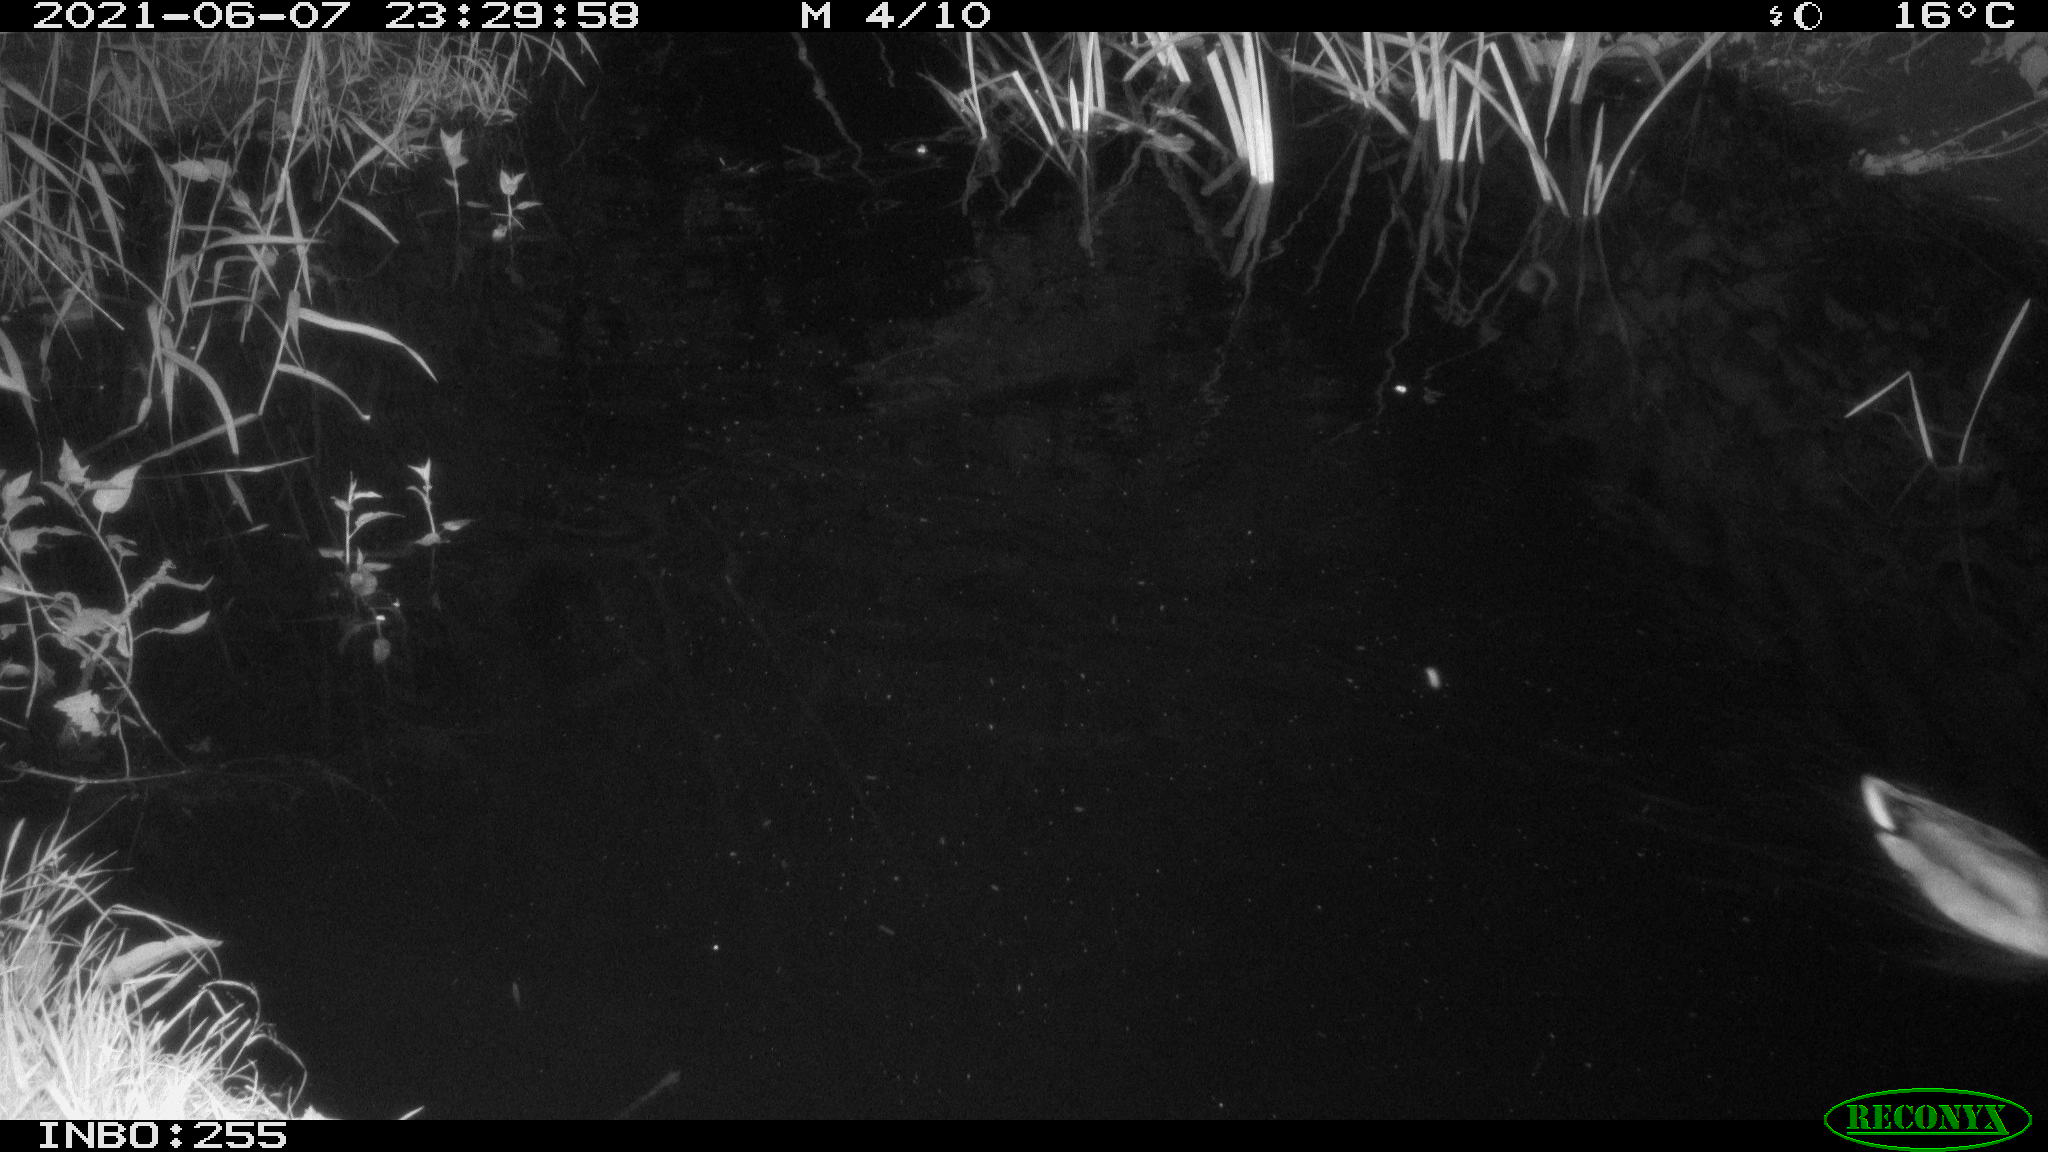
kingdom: Animalia
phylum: Chordata
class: Aves
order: Anseriformes
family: Anatidae
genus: Anas
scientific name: Anas
